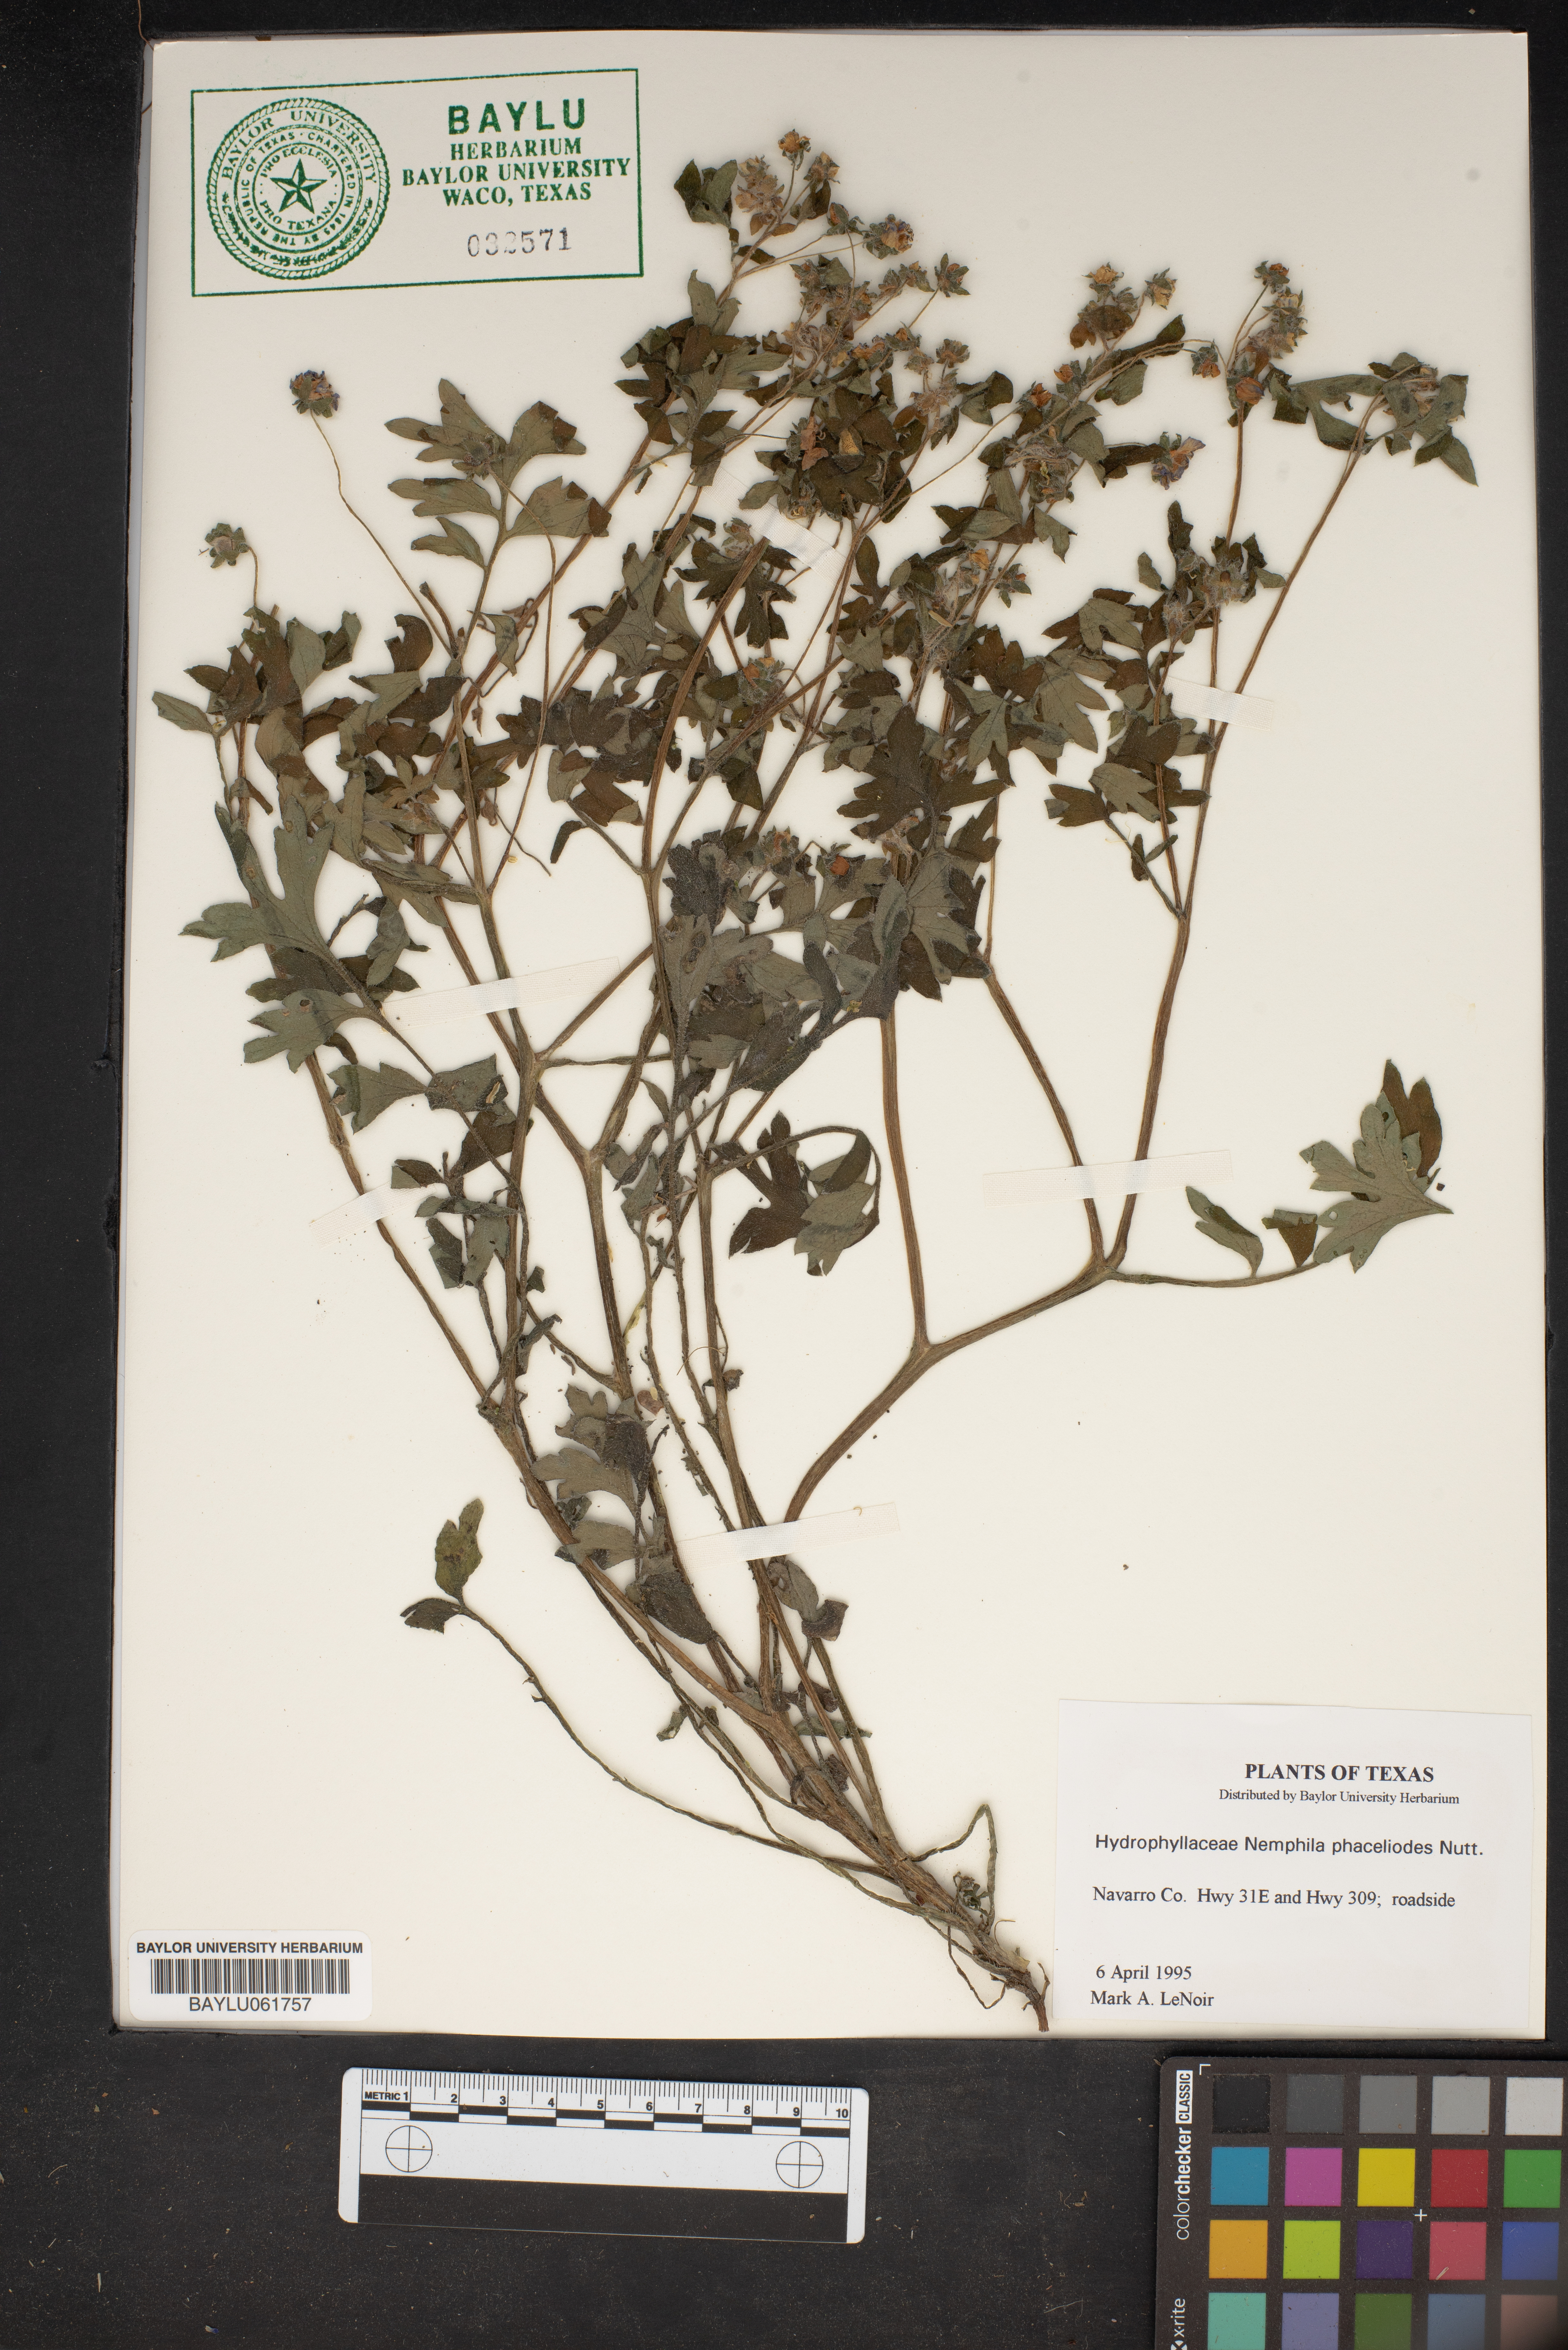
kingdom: Plantae
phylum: Tracheophyta
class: Magnoliopsida
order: Boraginales
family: Hydrophyllaceae
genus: Nemophila
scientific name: Nemophila phacelioides
